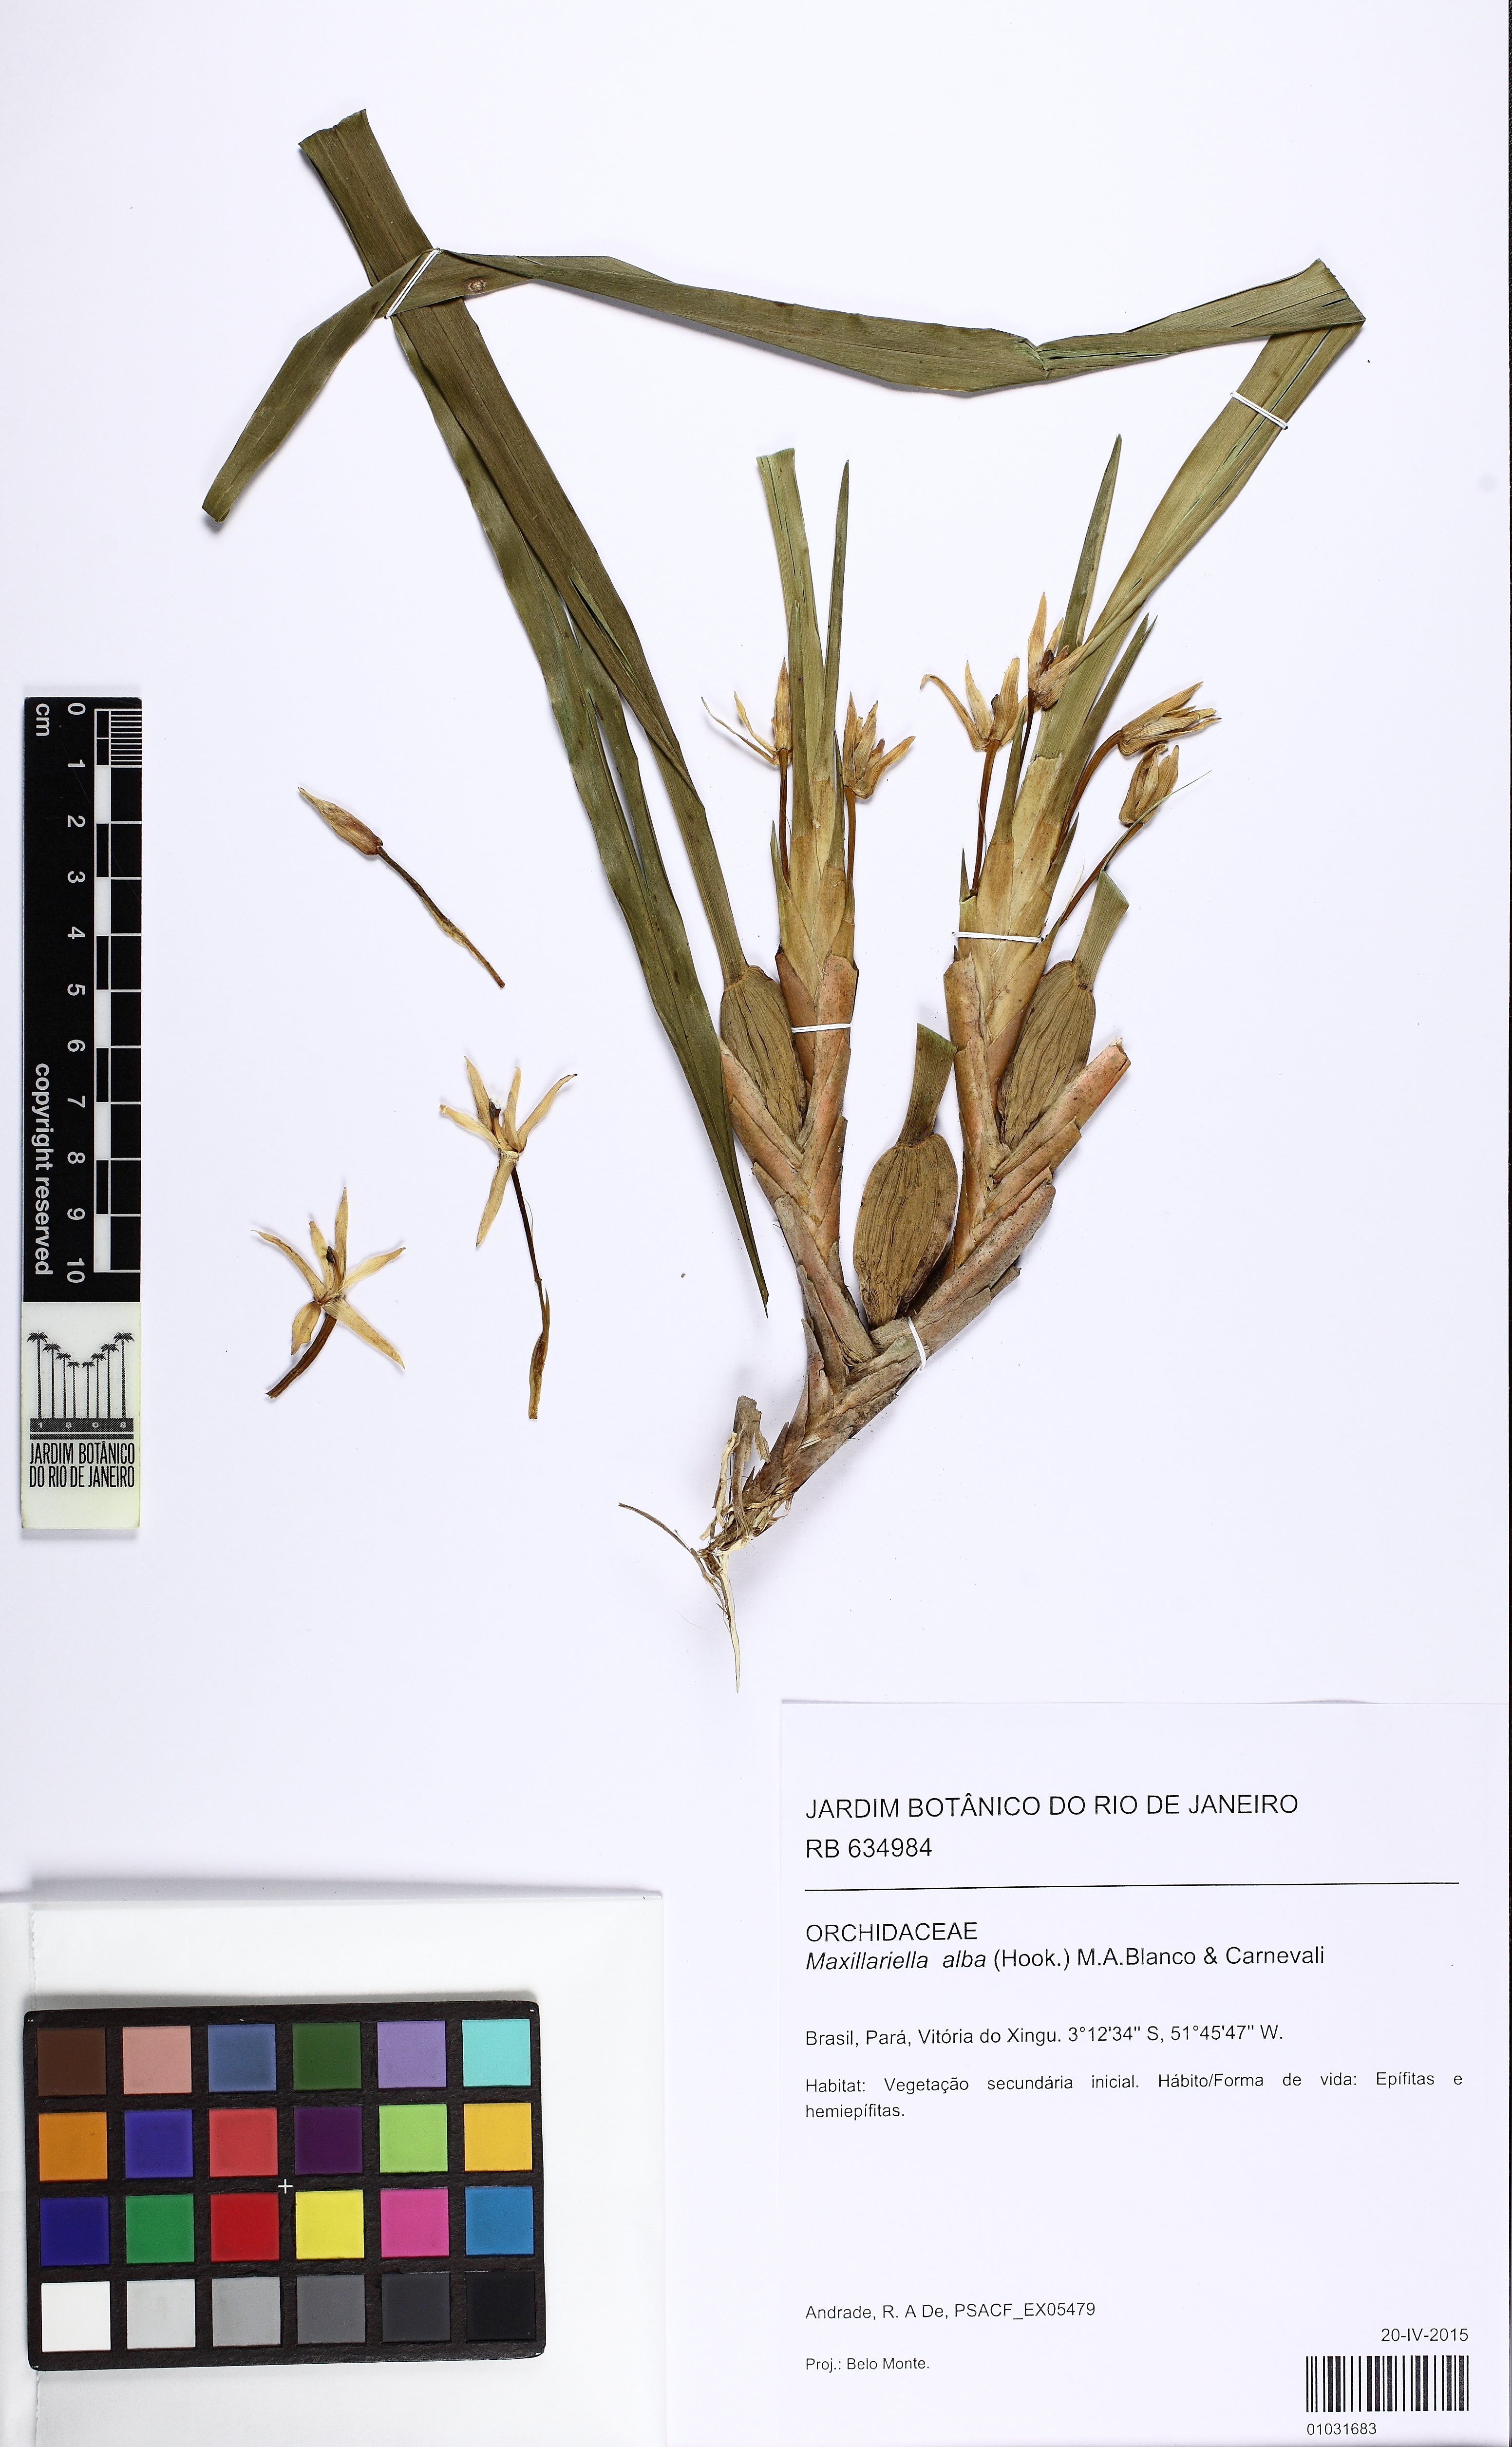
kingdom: Plantae
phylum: Tracheophyta
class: Liliopsida
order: Asparagales
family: Orchidaceae
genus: Maxillaria
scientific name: Maxillaria alba
